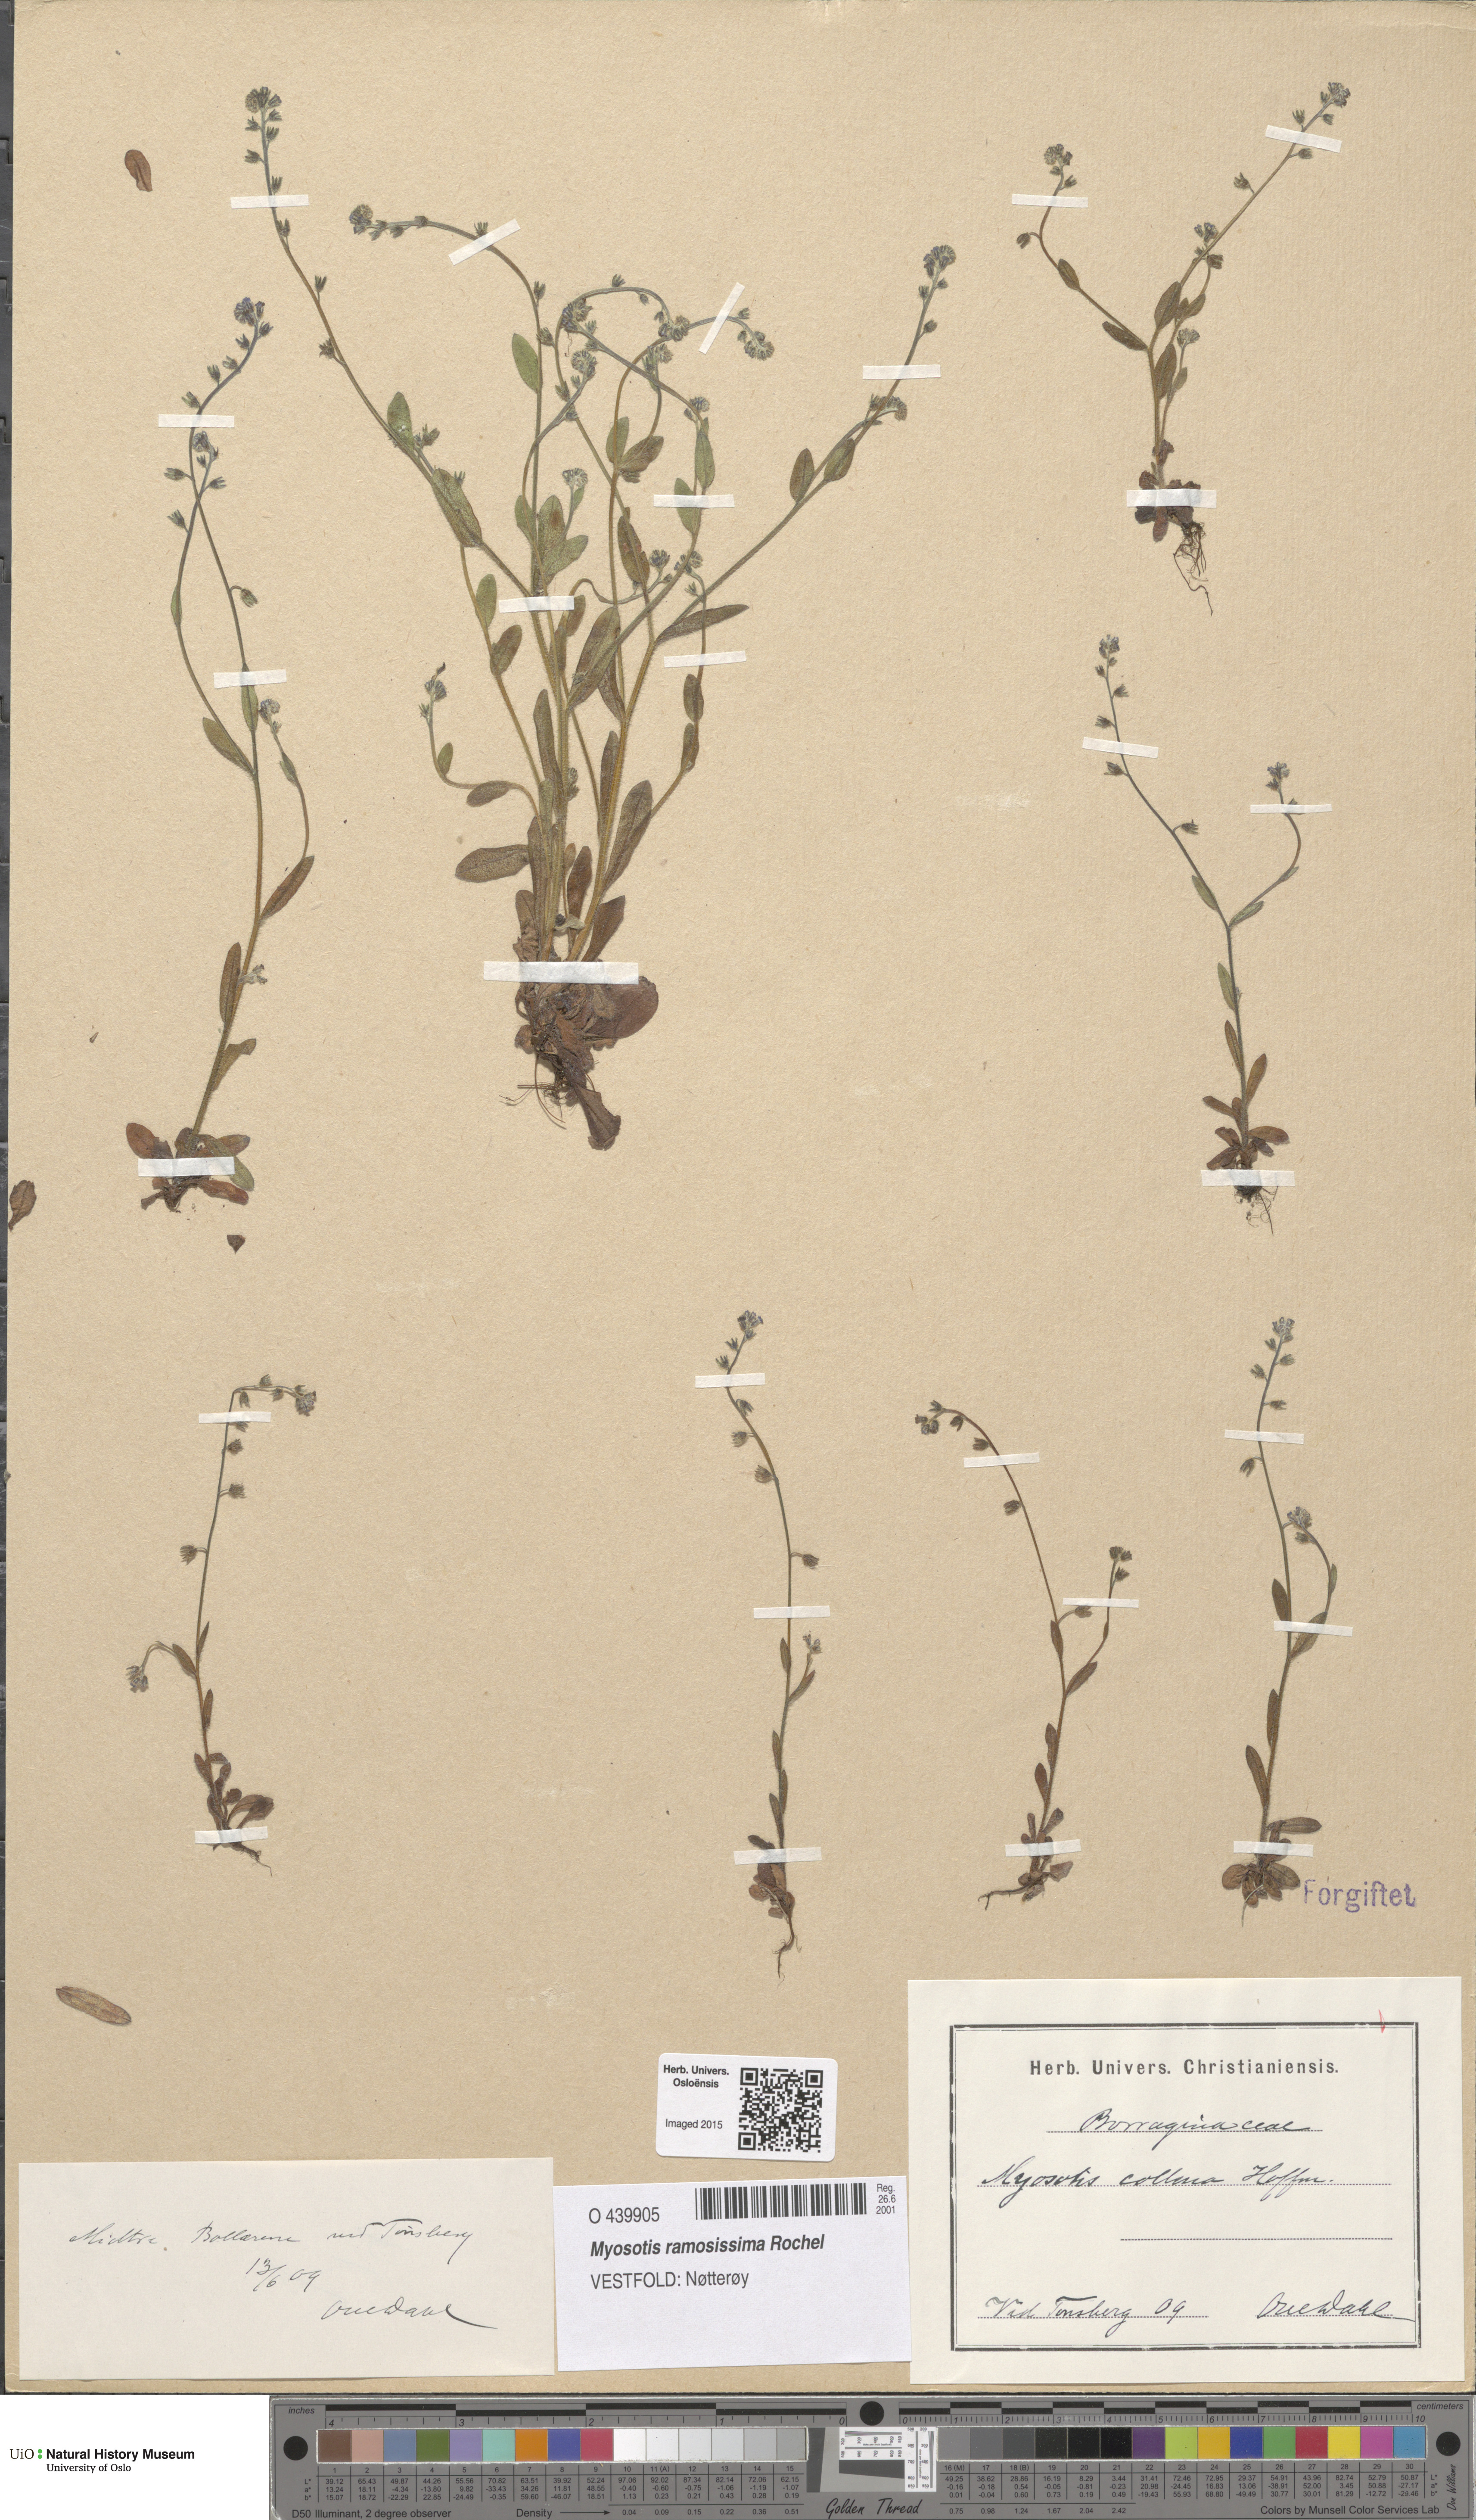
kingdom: Plantae
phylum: Tracheophyta
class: Magnoliopsida
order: Boraginales
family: Boraginaceae
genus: Myosotis
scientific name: Myosotis ramosissima
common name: Early forget-me-not
